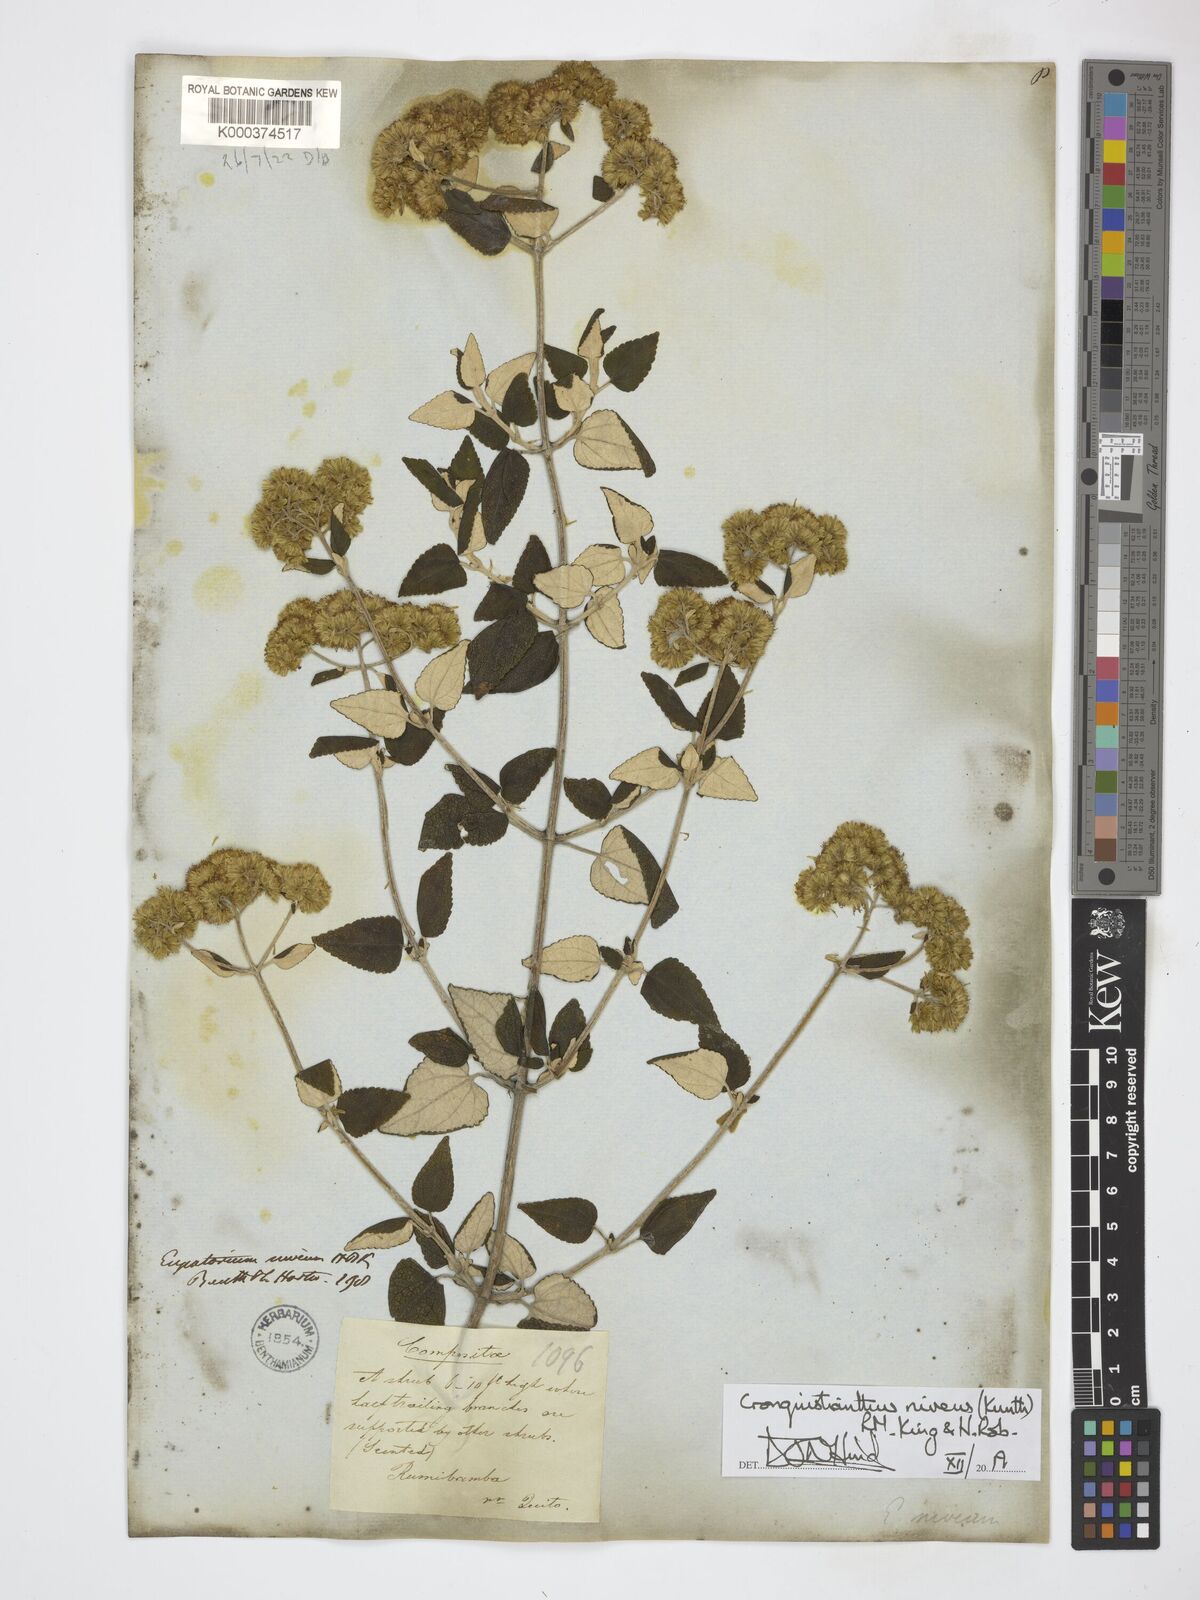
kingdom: Plantae
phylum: Tracheophyta
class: Magnoliopsida
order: Asterales
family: Asteraceae
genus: Cronquistianthus
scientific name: Cronquistianthus niveus
